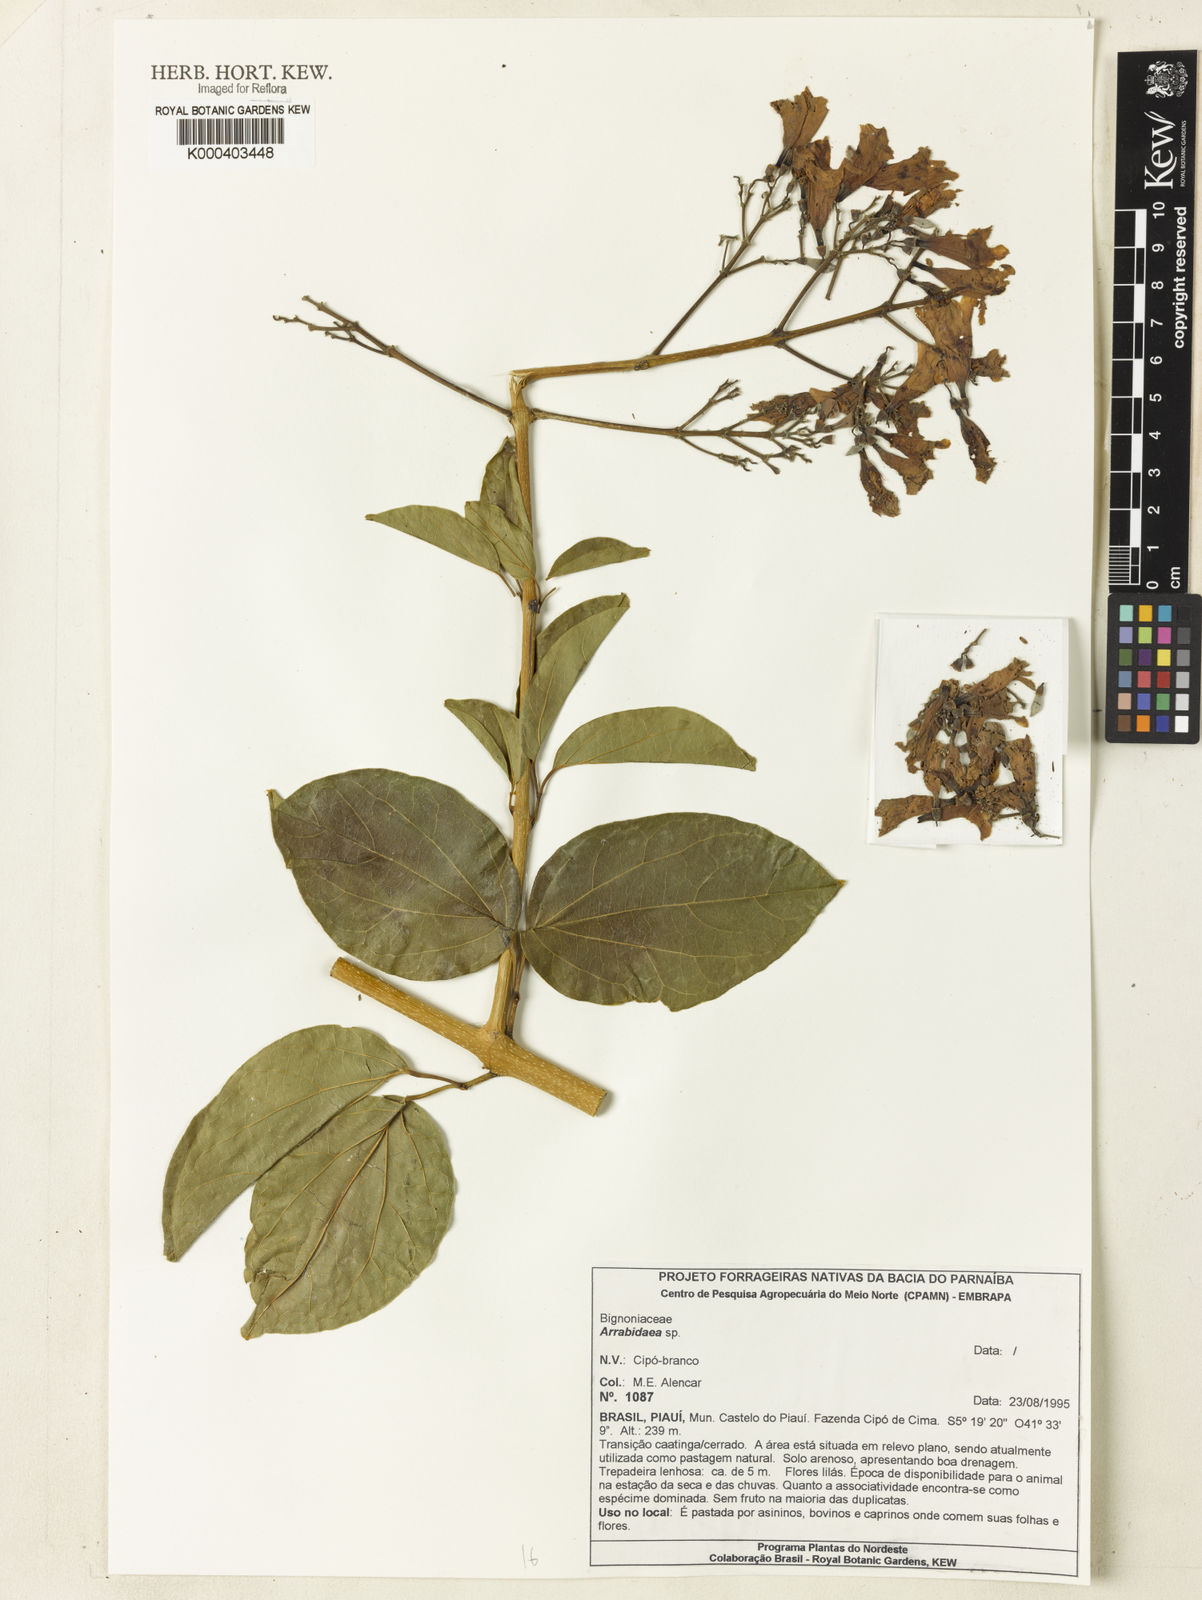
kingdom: Plantae
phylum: Tracheophyta
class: Magnoliopsida
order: Rosales
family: Rhamnaceae
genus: Arrabidaea
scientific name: Arrabidaea
